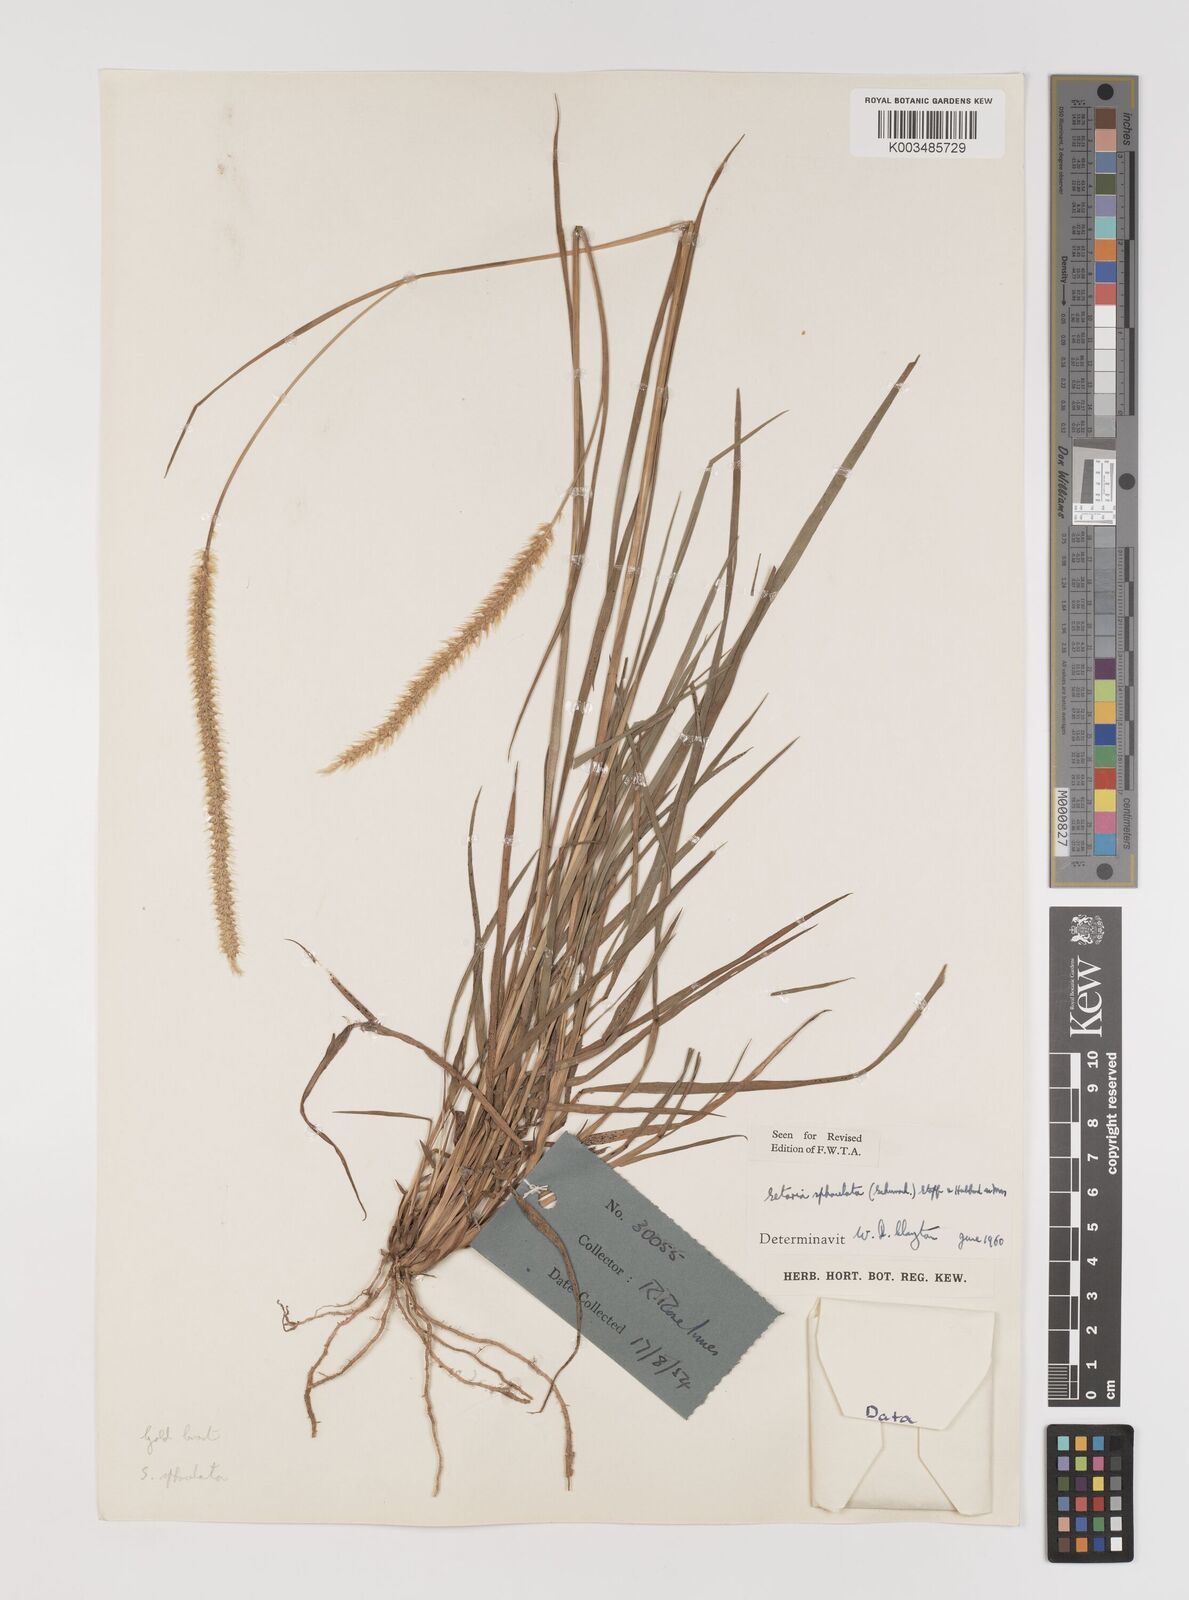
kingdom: Plantae
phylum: Tracheophyta
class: Liliopsida
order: Poales
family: Poaceae
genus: Setaria
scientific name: Setaria sphacelata
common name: African bristlegrass
